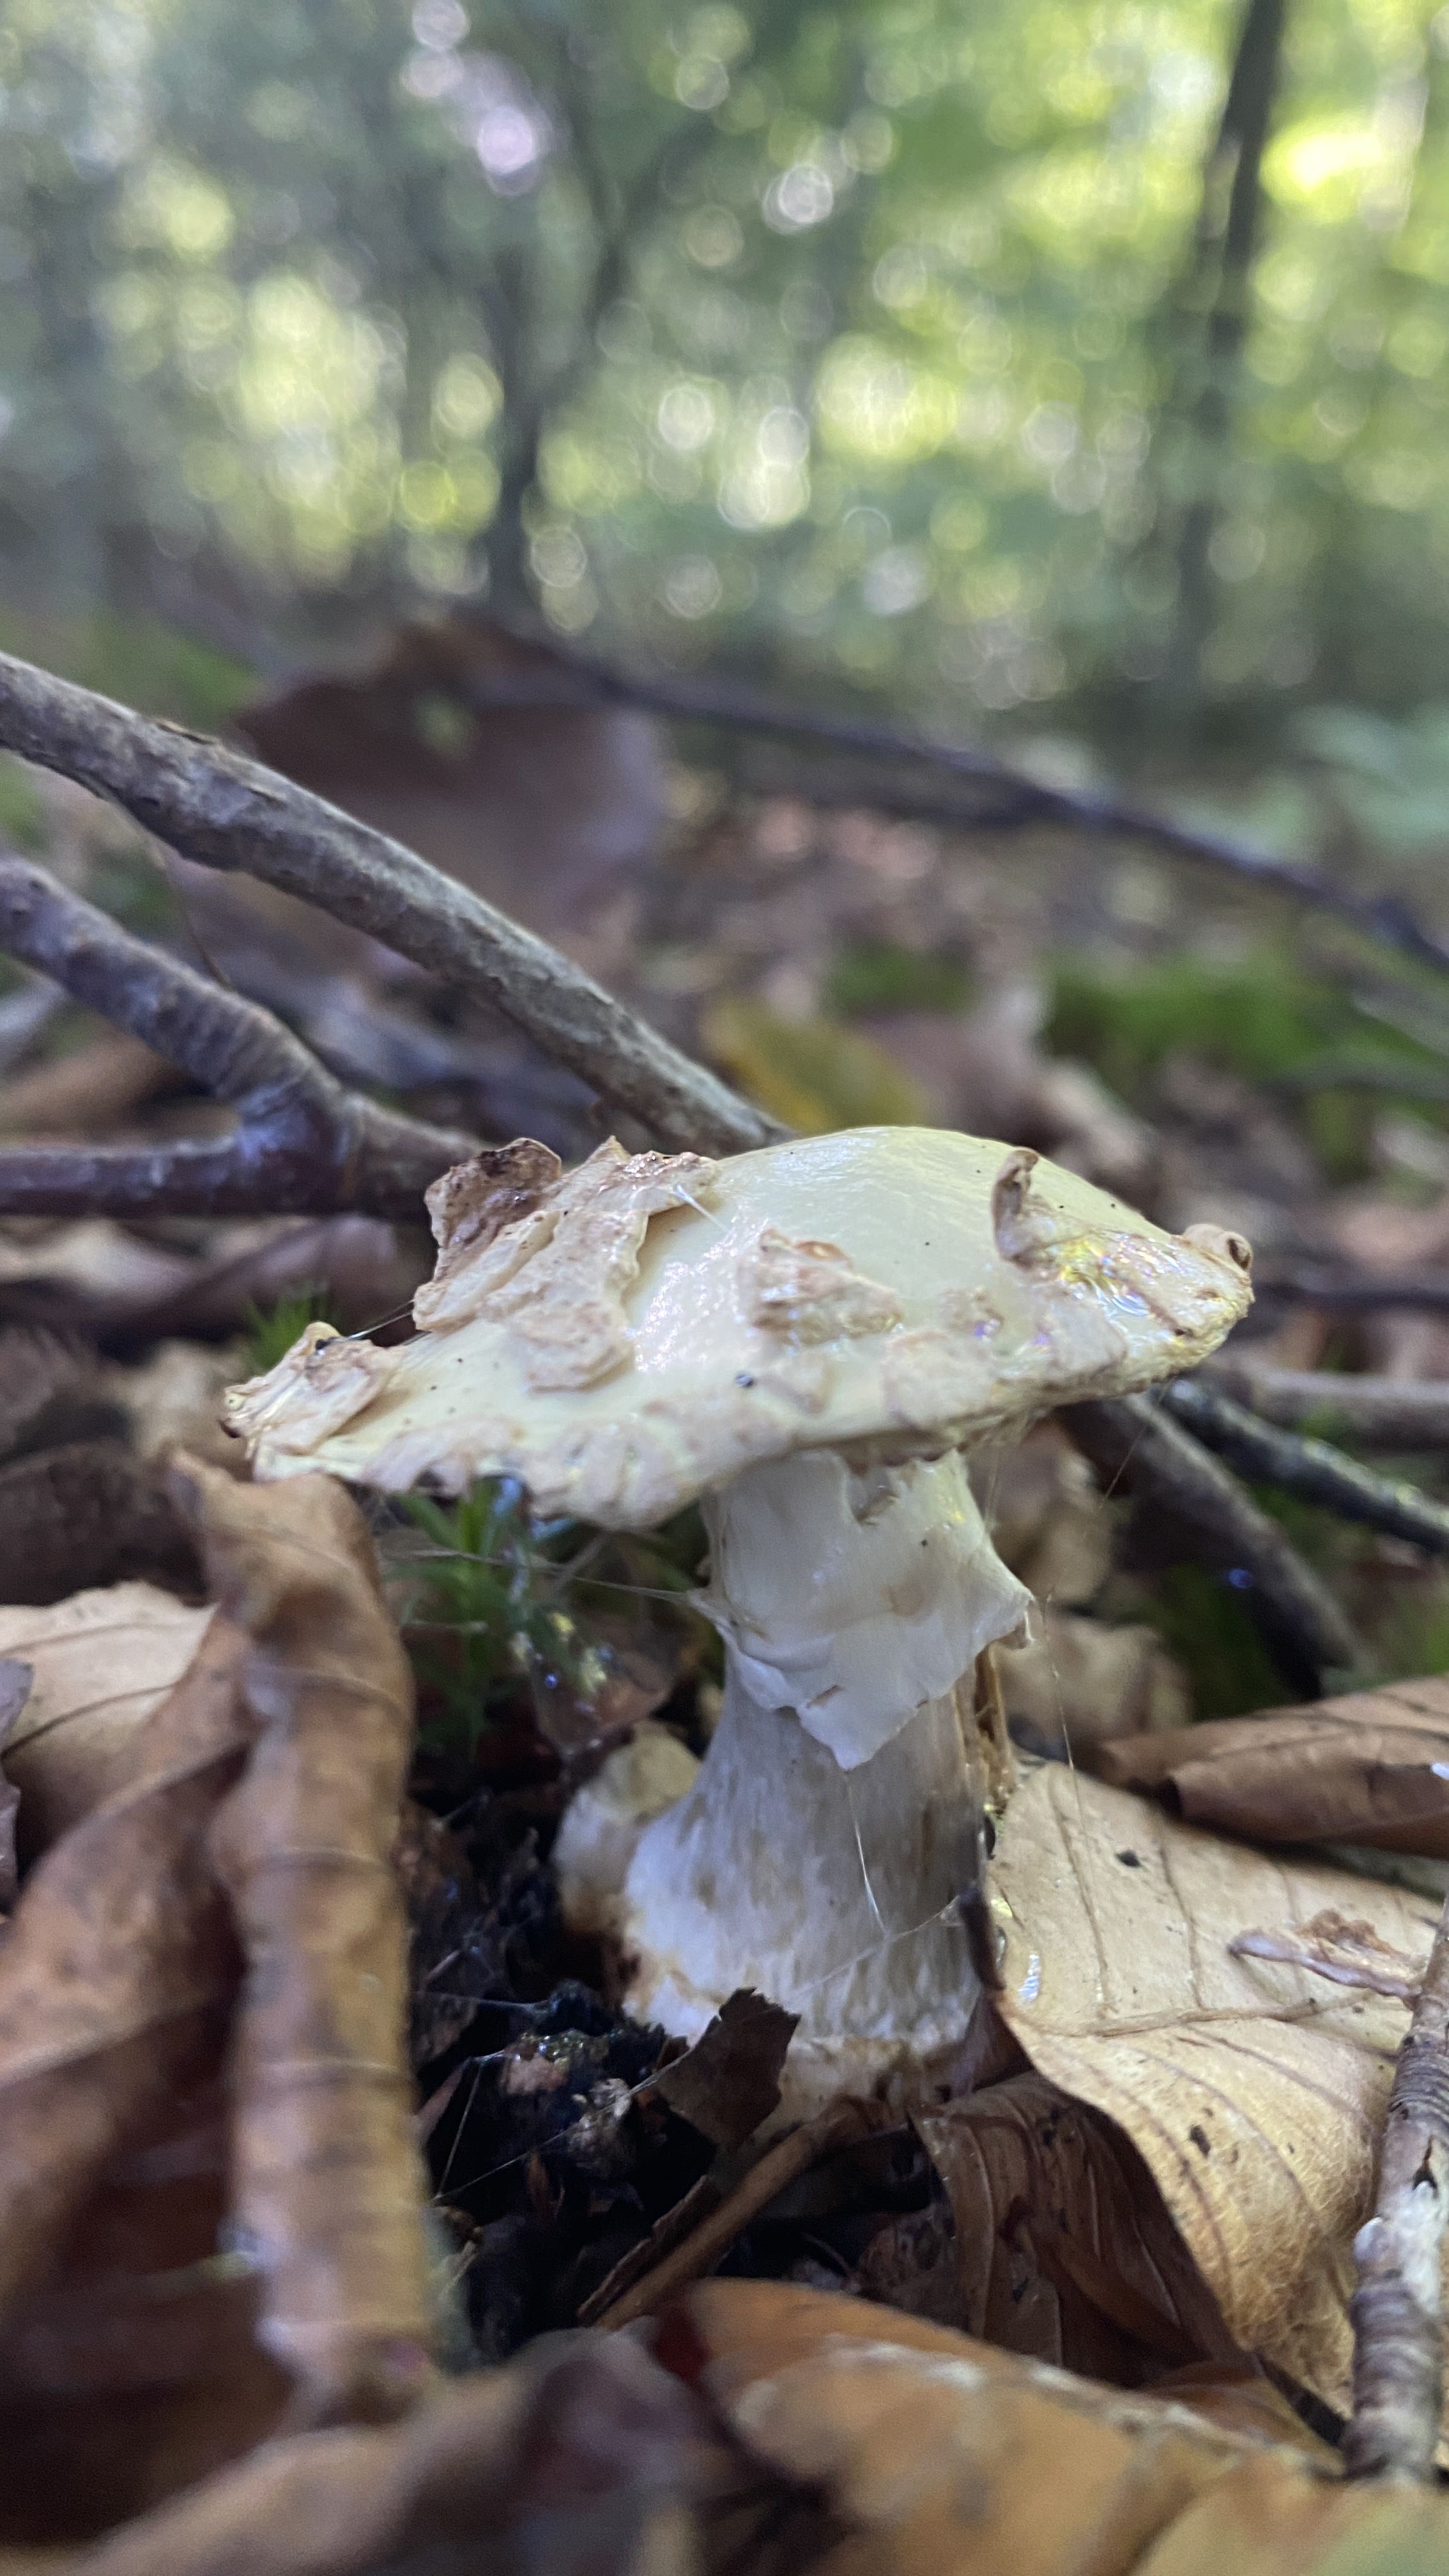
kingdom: Fungi
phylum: Basidiomycota
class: Agaricomycetes
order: Agaricales
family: Amanitaceae
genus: Amanita
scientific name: Amanita citrina
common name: kugleknoldet fluesvamp
